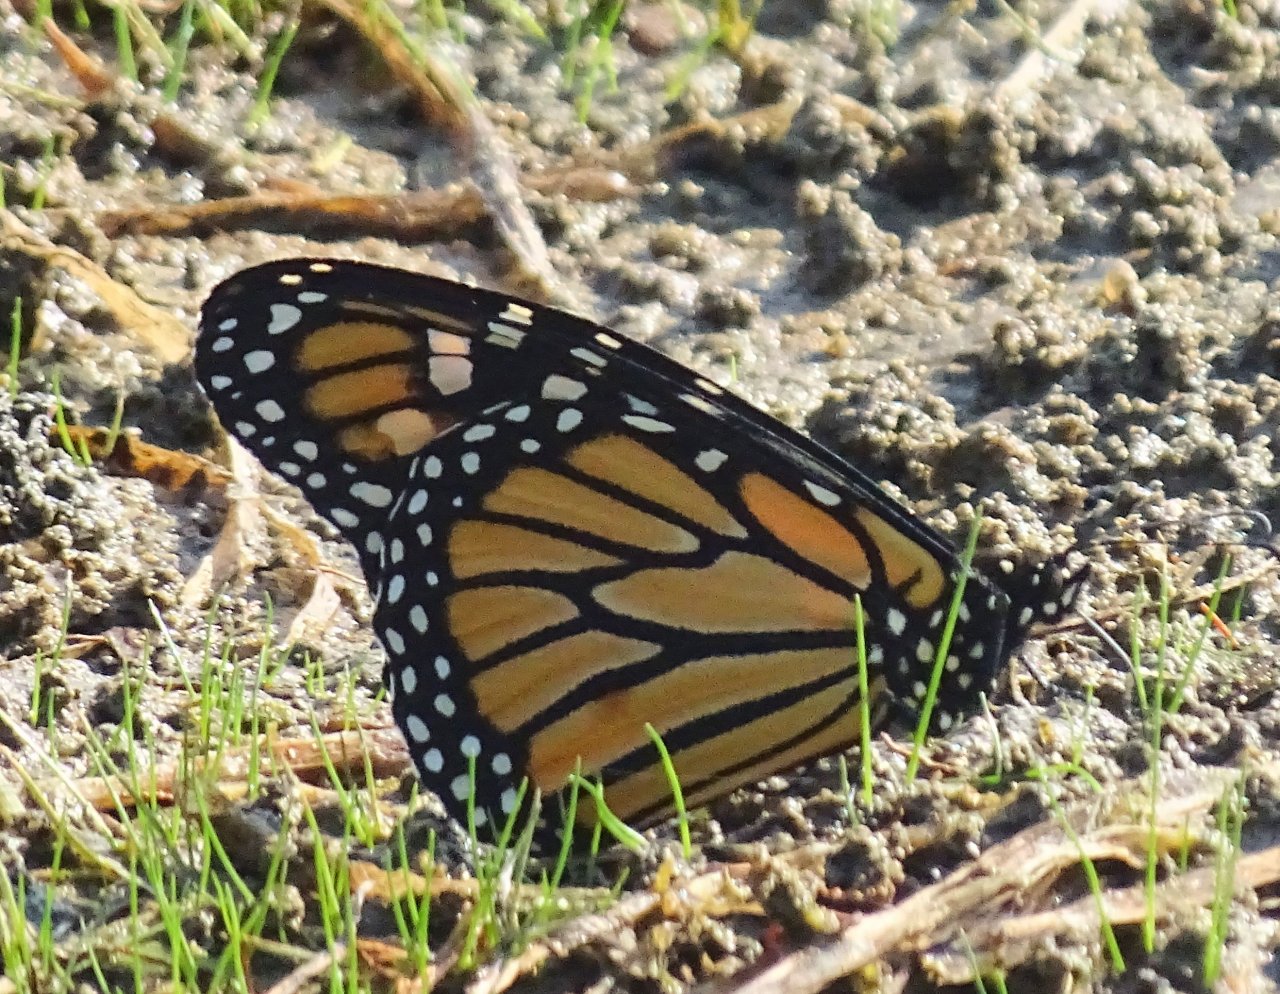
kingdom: Animalia
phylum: Arthropoda
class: Insecta
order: Lepidoptera
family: Nymphalidae
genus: Danaus
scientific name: Danaus plexippus
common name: Monarch
